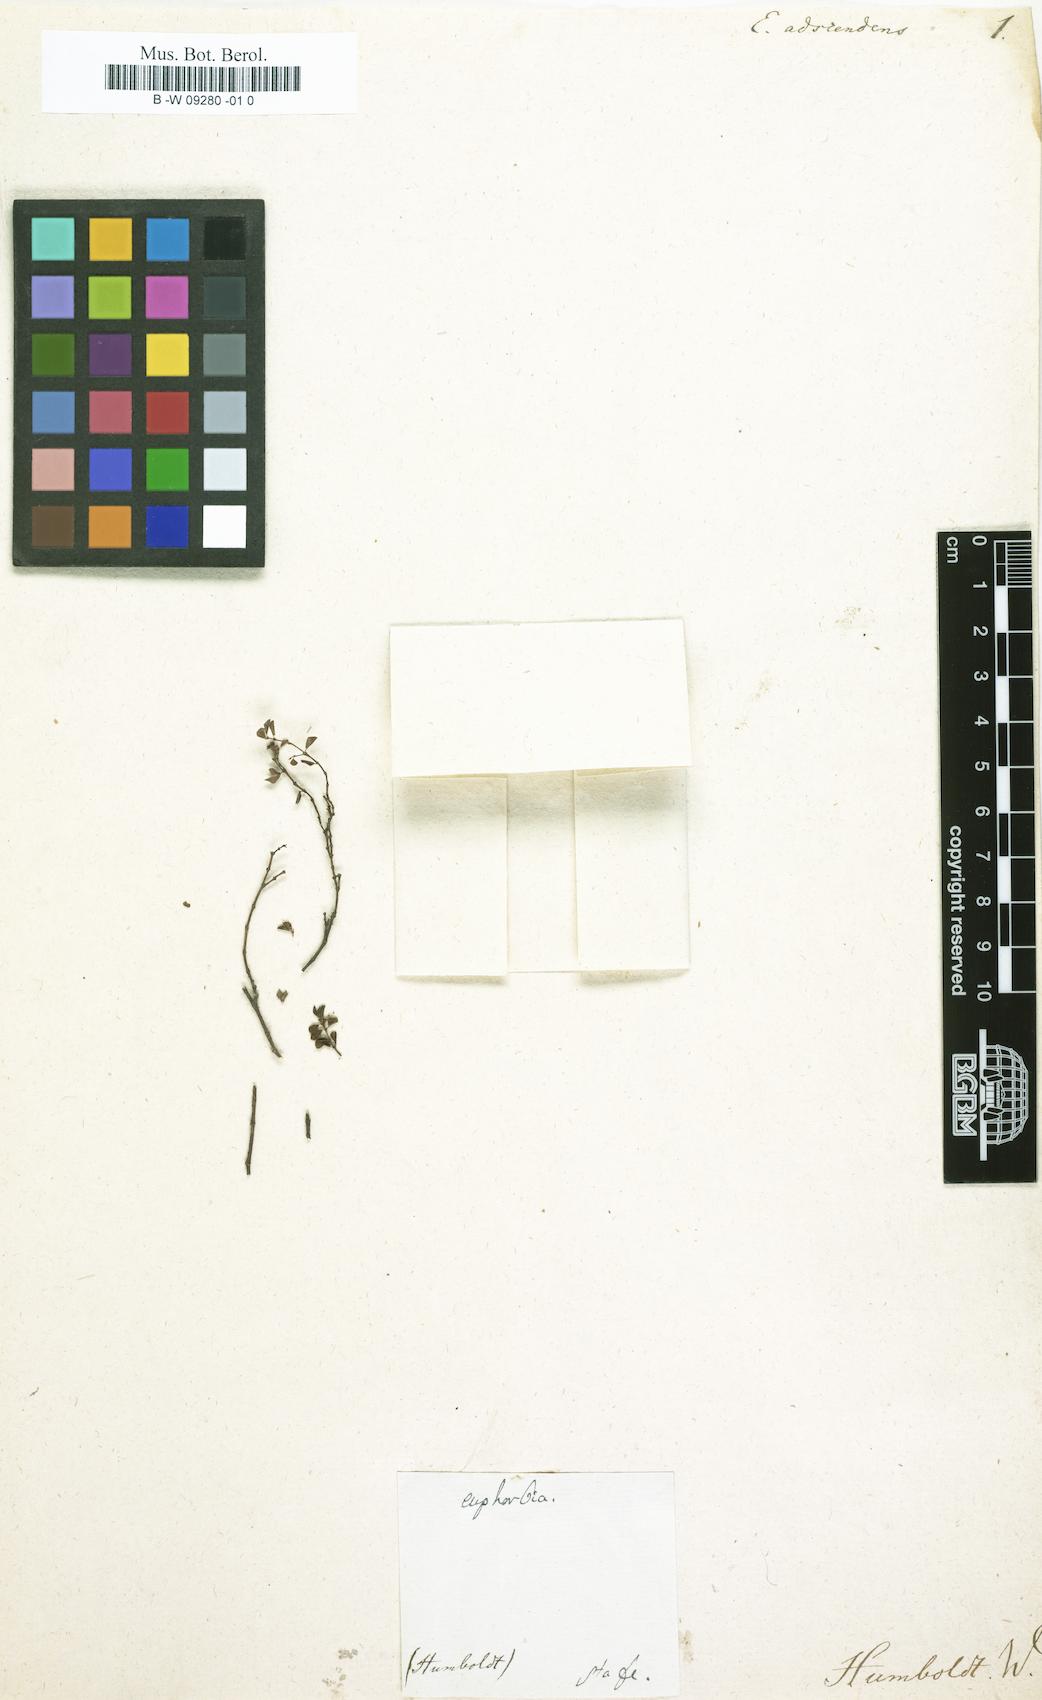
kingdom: Plantae
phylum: Tracheophyta
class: Magnoliopsida
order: Malpighiales
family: Euphorbiaceae
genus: Euphorbia
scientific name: Euphorbia orbiculata
